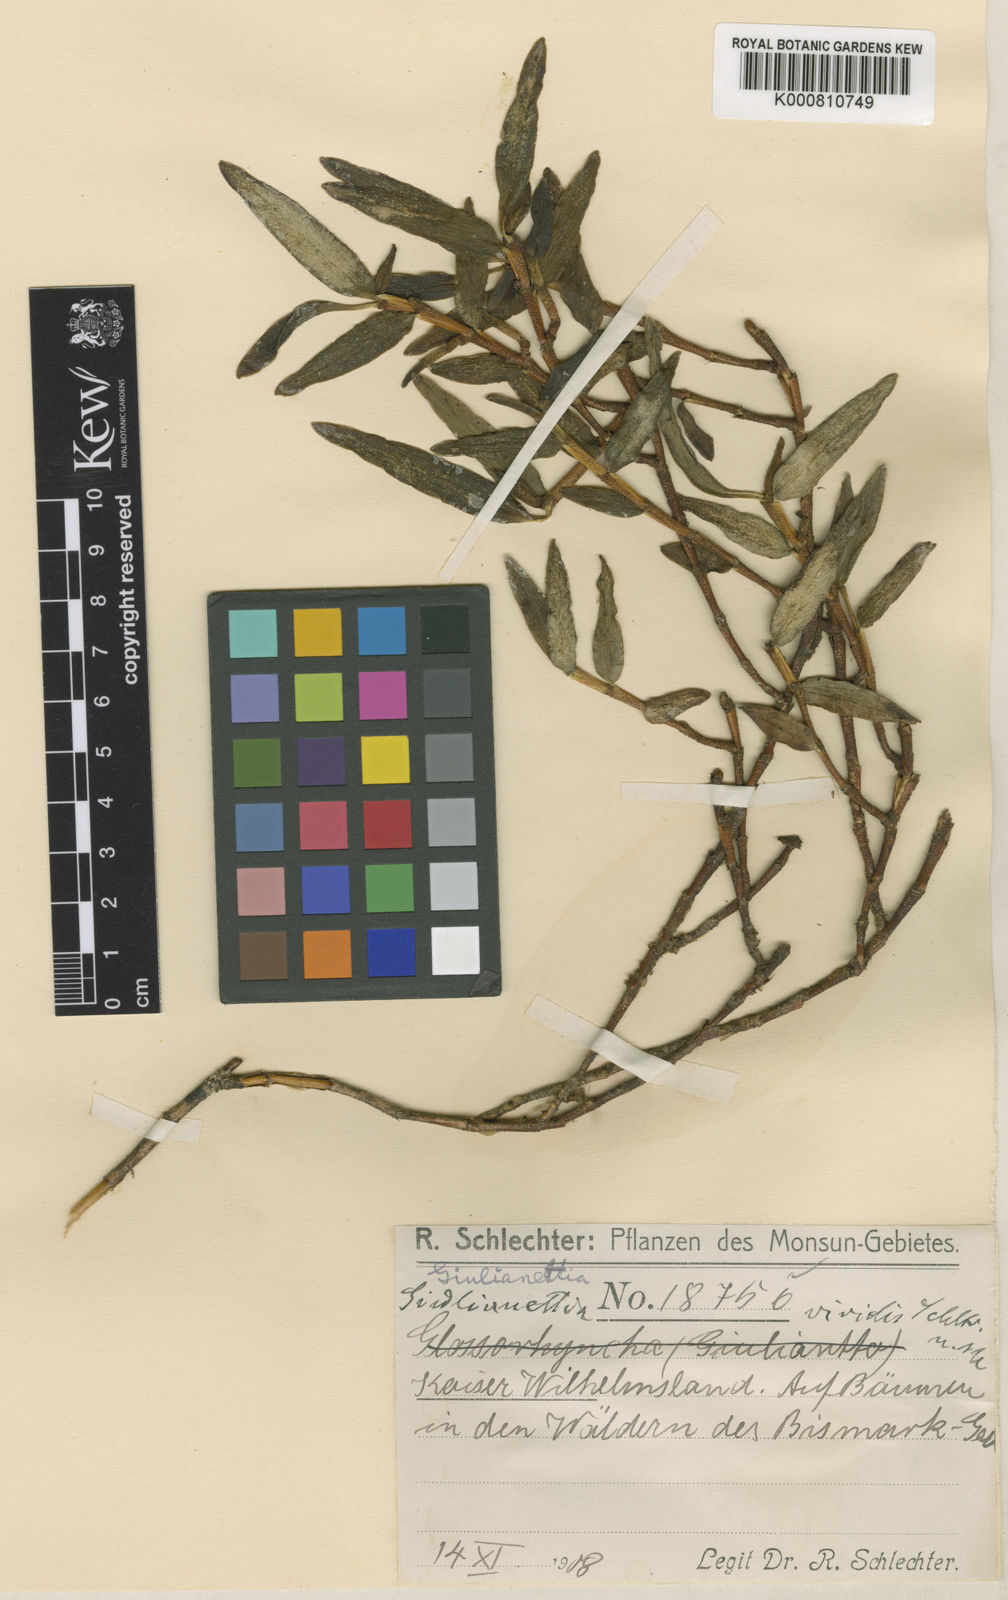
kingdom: Plantae
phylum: Tracheophyta
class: Liliopsida
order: Asparagales
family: Orchidaceae
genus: Glomera
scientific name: Glomera viridis
